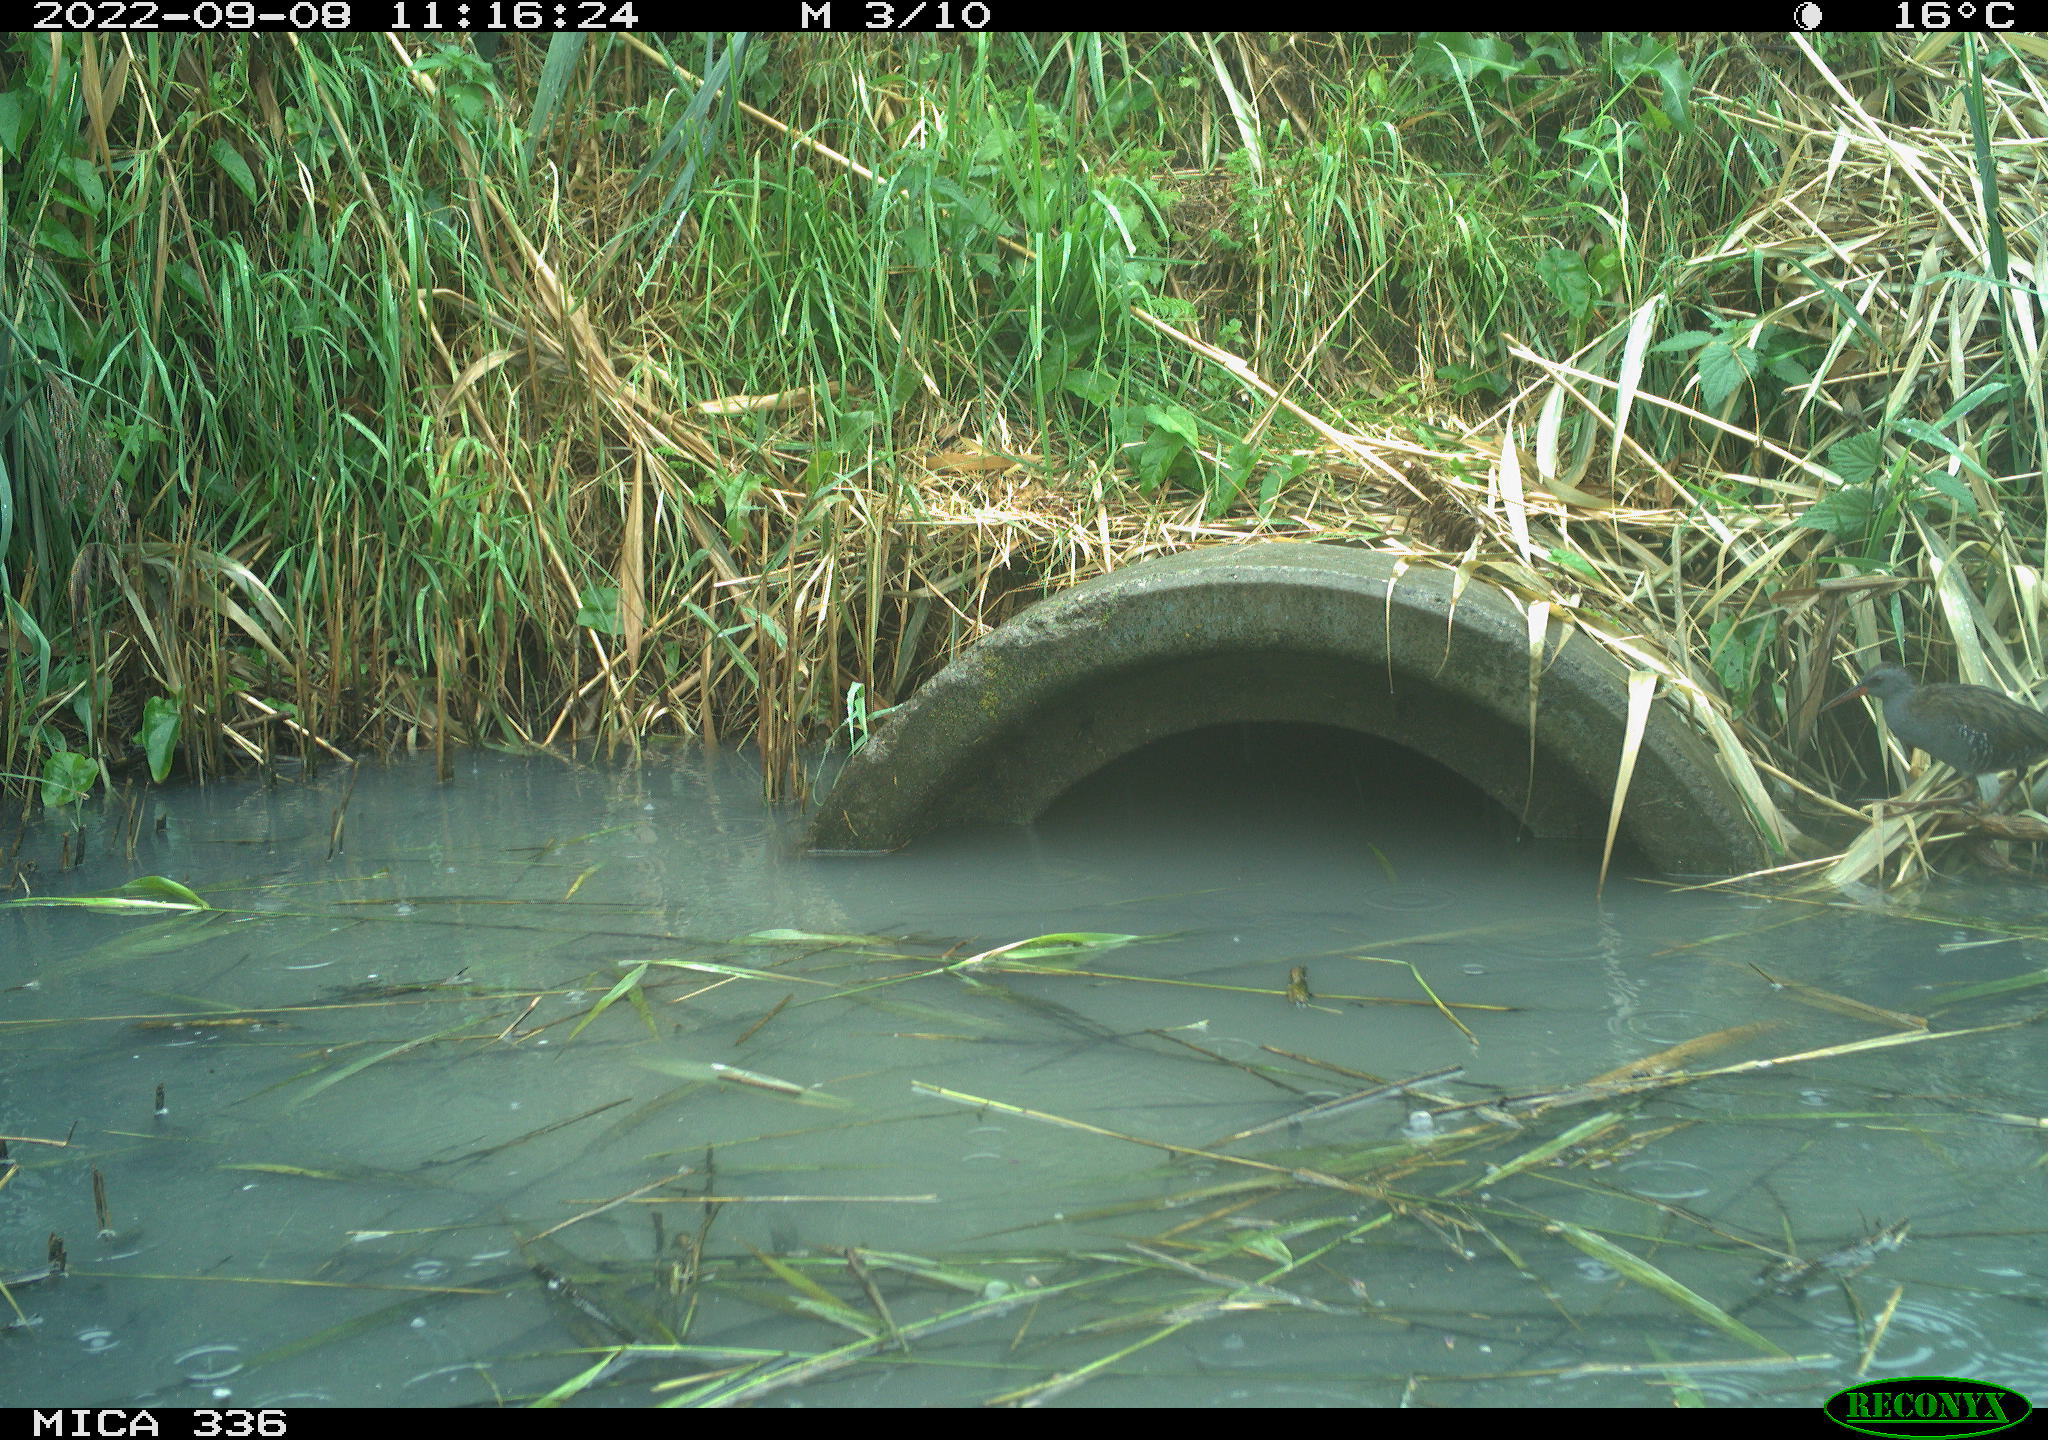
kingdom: Animalia
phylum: Chordata
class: Aves
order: Gruiformes
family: Rallidae
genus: Rallus
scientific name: Rallus aquaticus
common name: Water rail
